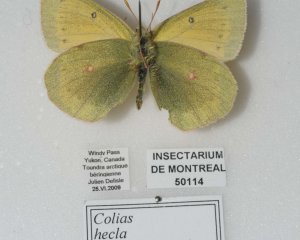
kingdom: Animalia
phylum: Arthropoda
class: Insecta
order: Lepidoptera
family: Pieridae
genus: Colias
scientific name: Colias hecla
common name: Hecla Sulphur
